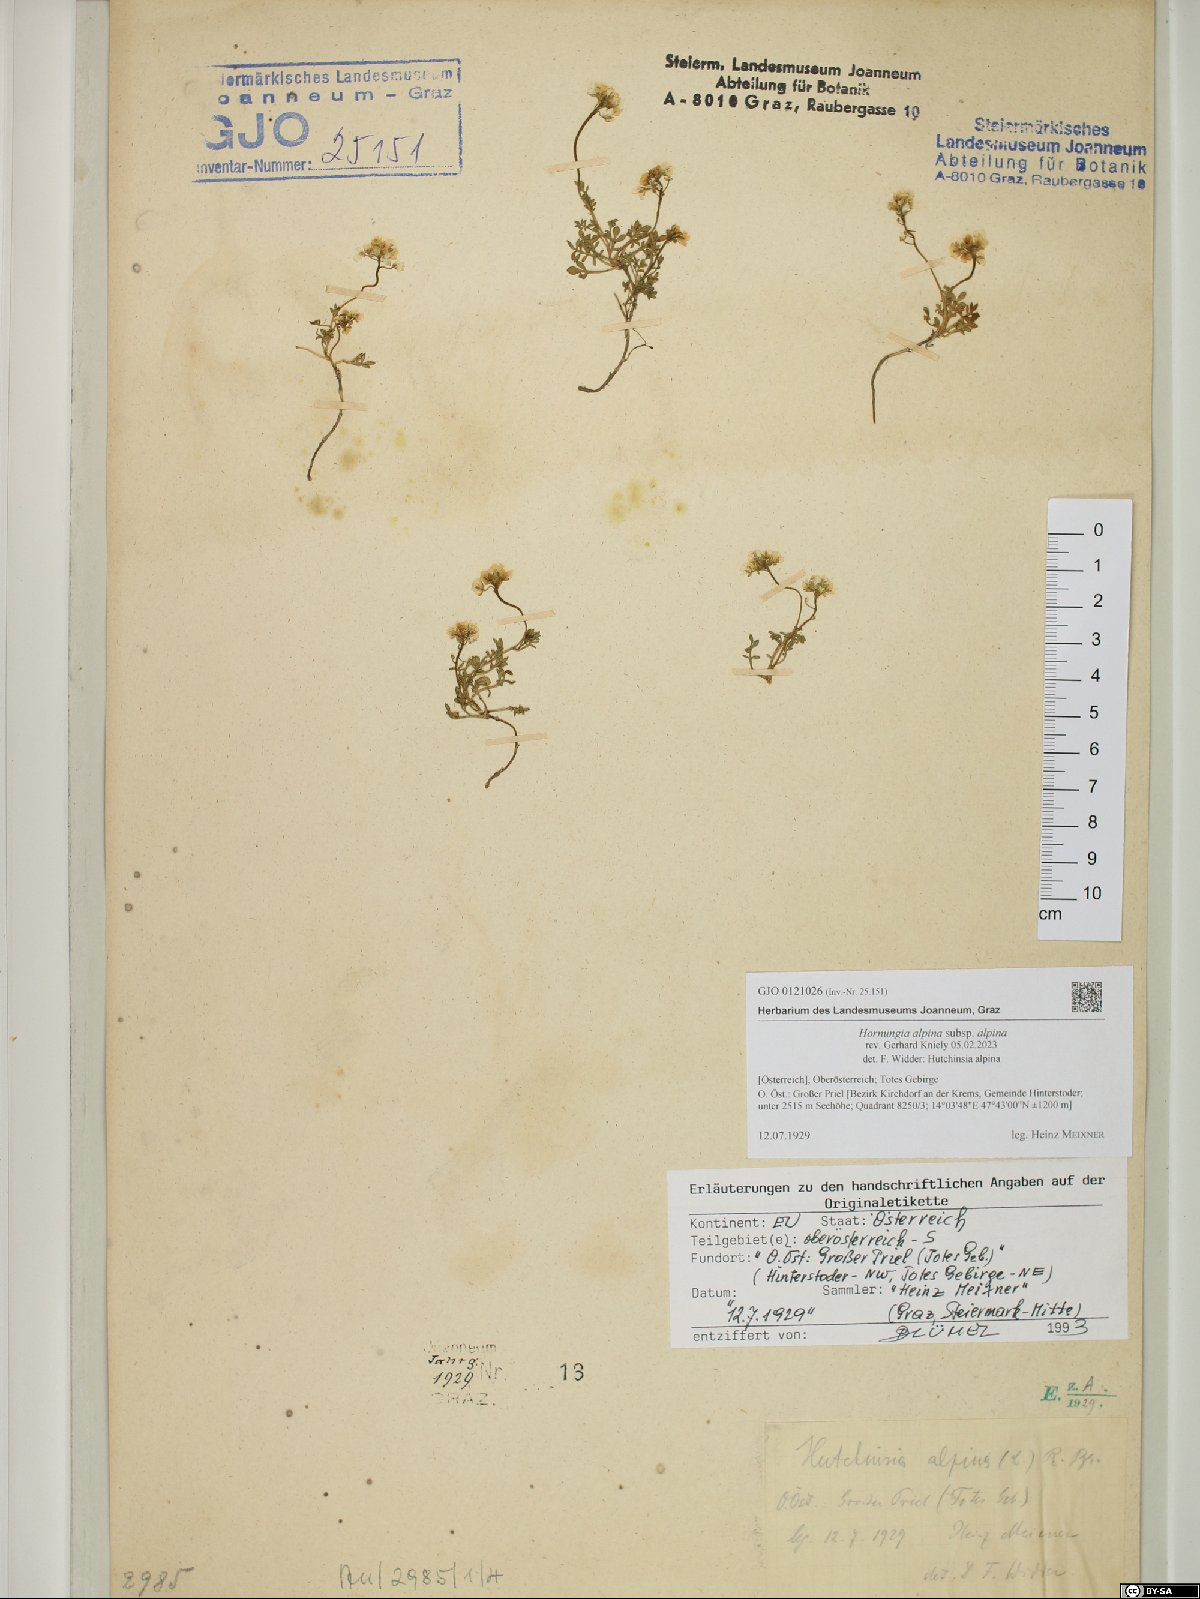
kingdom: Plantae
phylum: Tracheophyta
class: Magnoliopsida
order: Brassicales
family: Brassicaceae
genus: Hornungia
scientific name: Hornungia alpina
